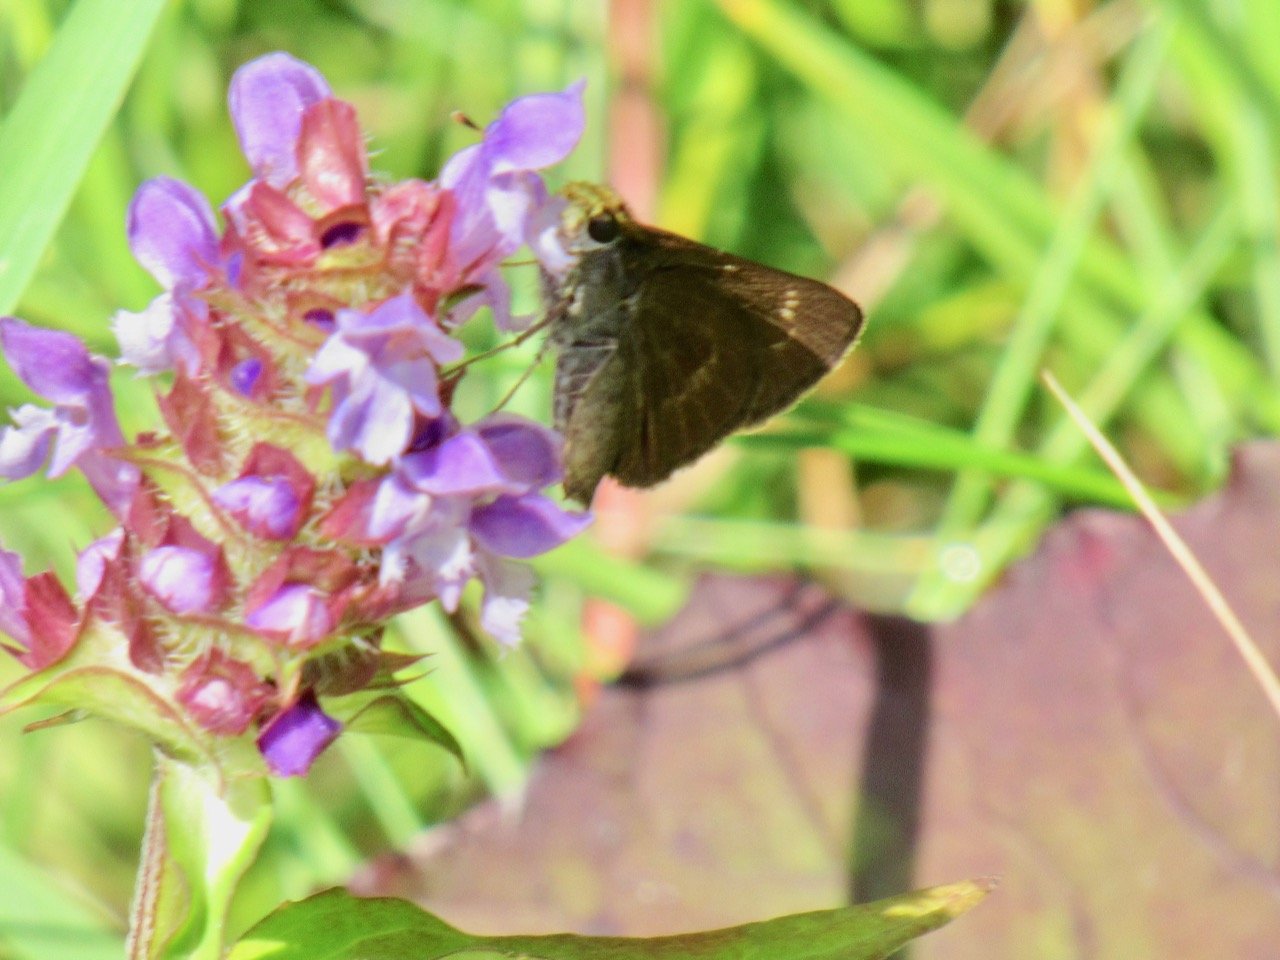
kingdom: Animalia
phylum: Arthropoda
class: Insecta
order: Lepidoptera
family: Hesperiidae
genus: Polites
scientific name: Polites egeremet
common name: Northern Broken-Dash
